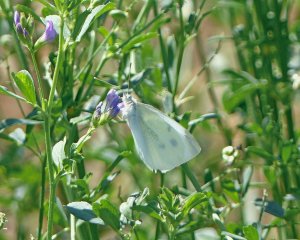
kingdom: Animalia
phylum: Arthropoda
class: Insecta
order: Lepidoptera
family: Pieridae
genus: Pieris
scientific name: Pieris rapae
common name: Cabbage White
